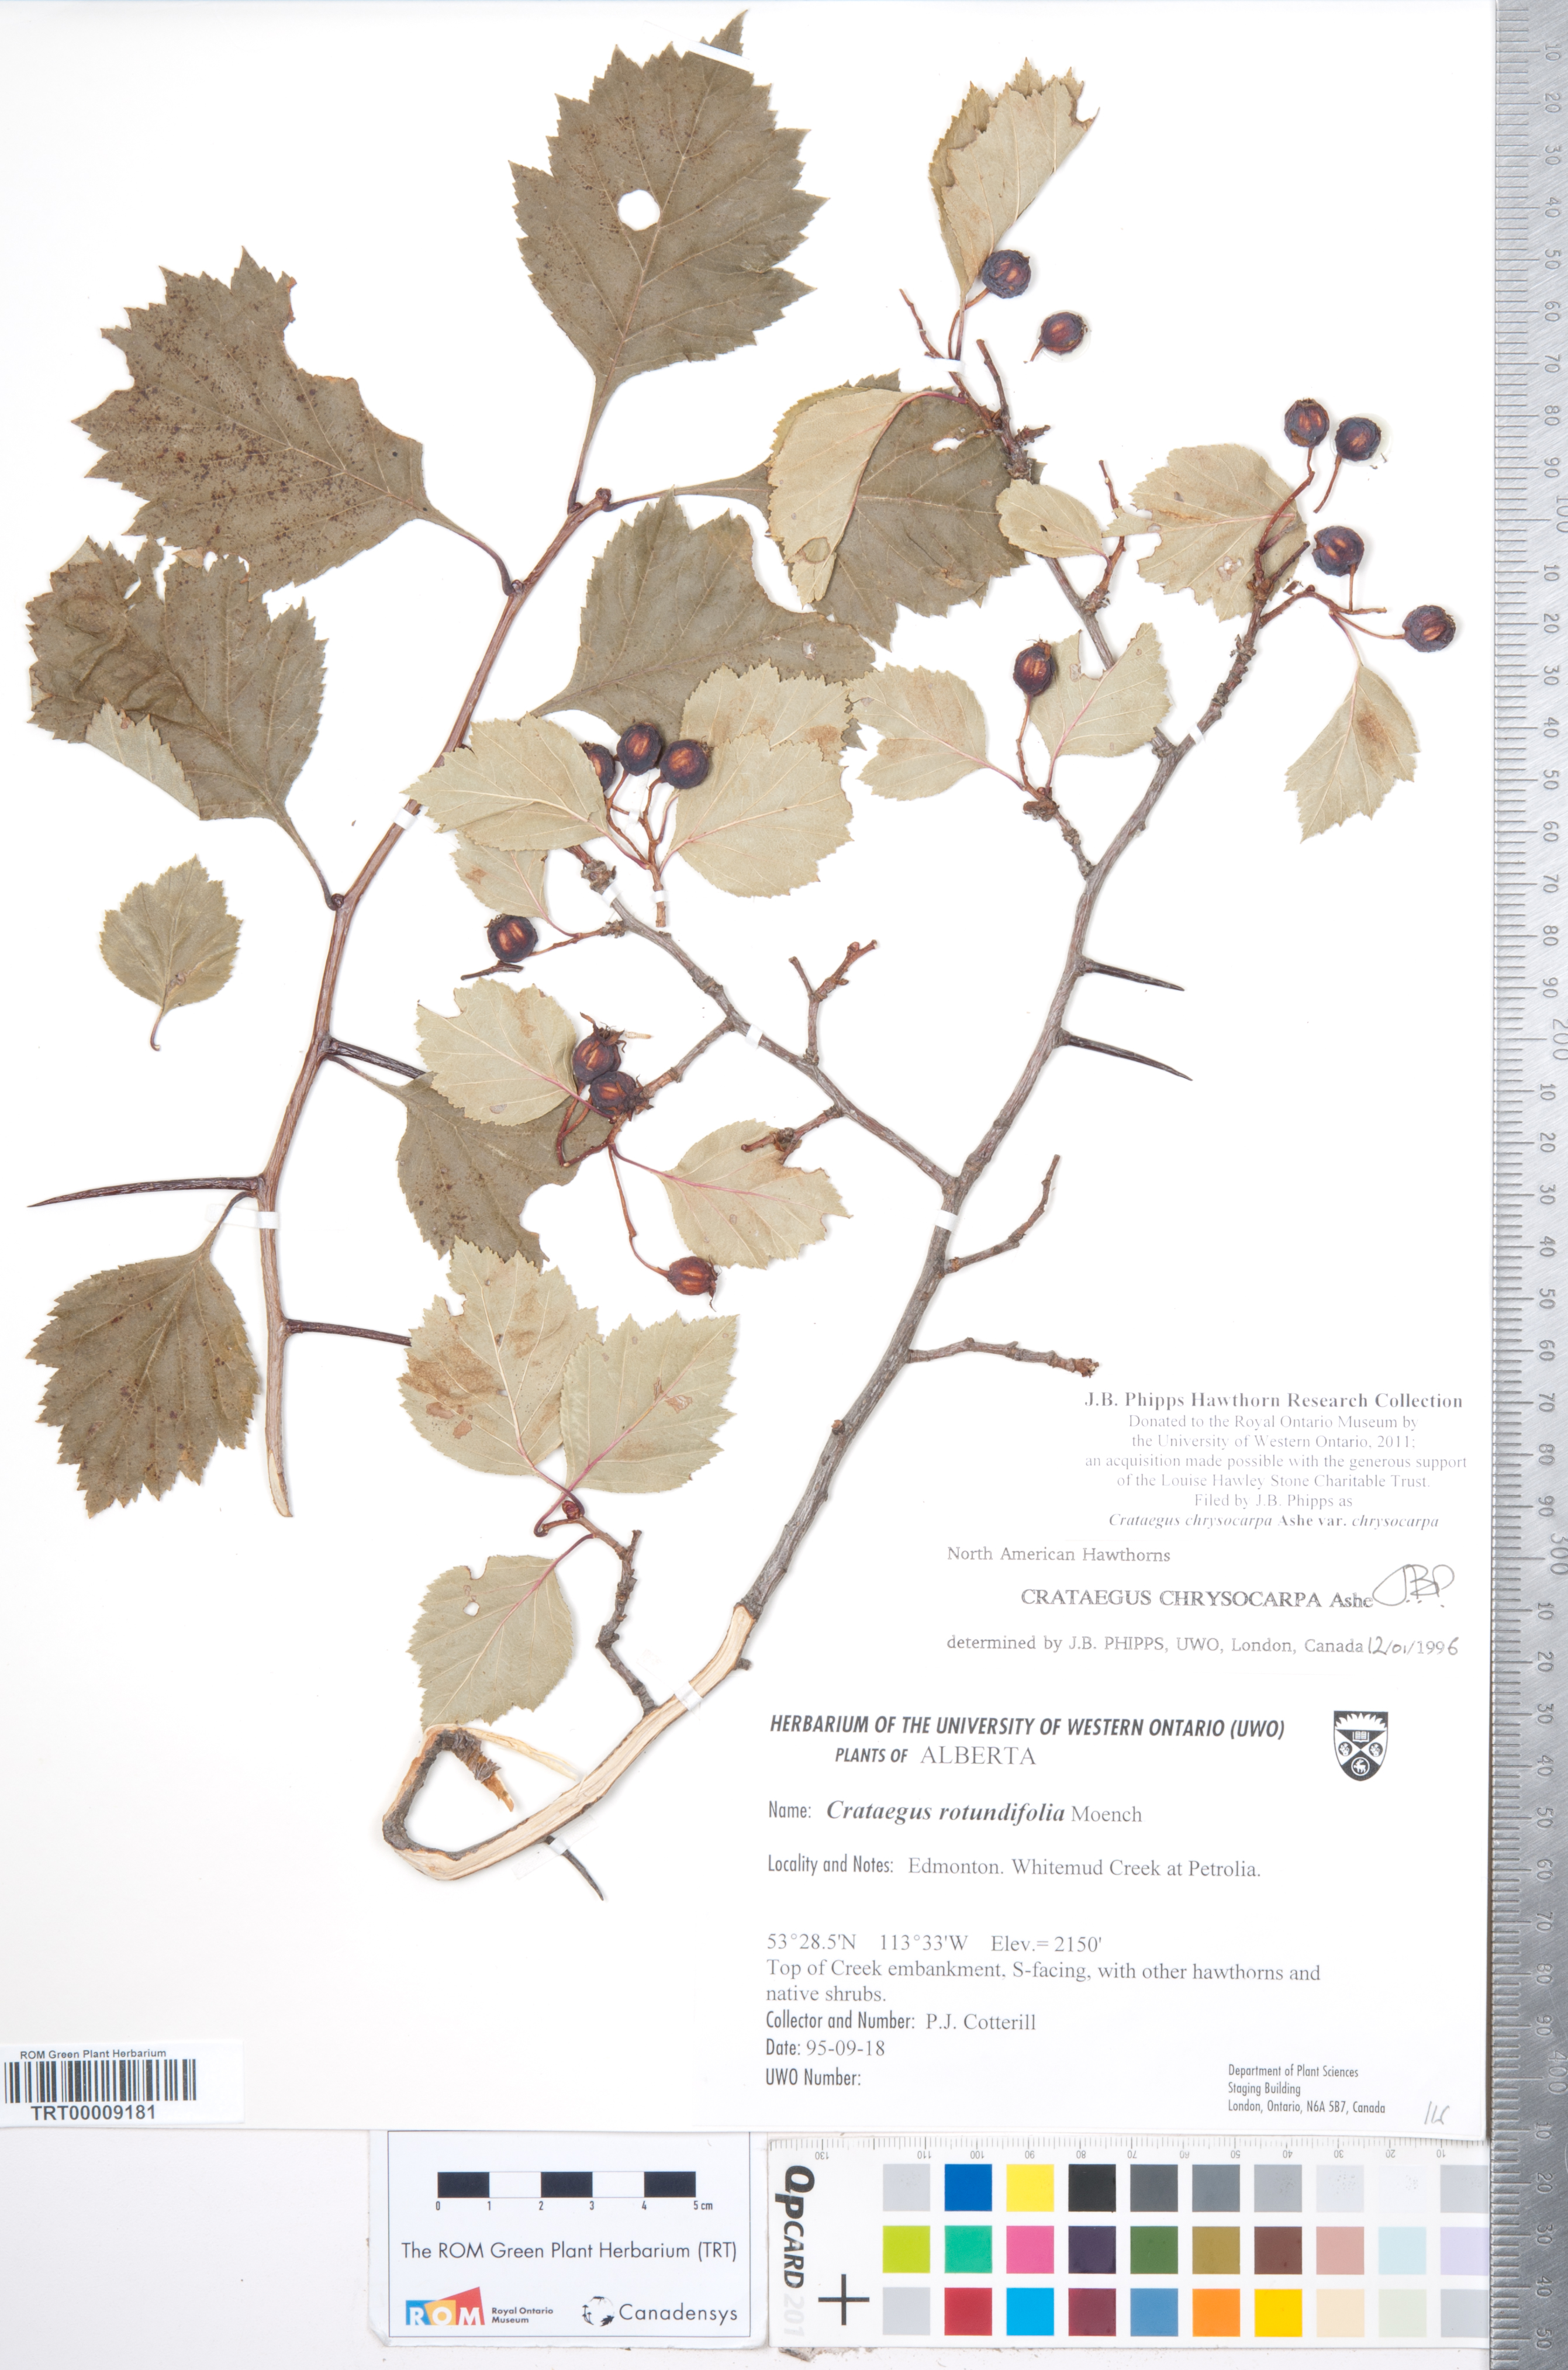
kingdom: Plantae
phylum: Tracheophyta
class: Magnoliopsida
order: Rosales
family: Rosaceae
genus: Crataegus
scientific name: Crataegus chrysocarpa
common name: Fire-berry hawthorn
